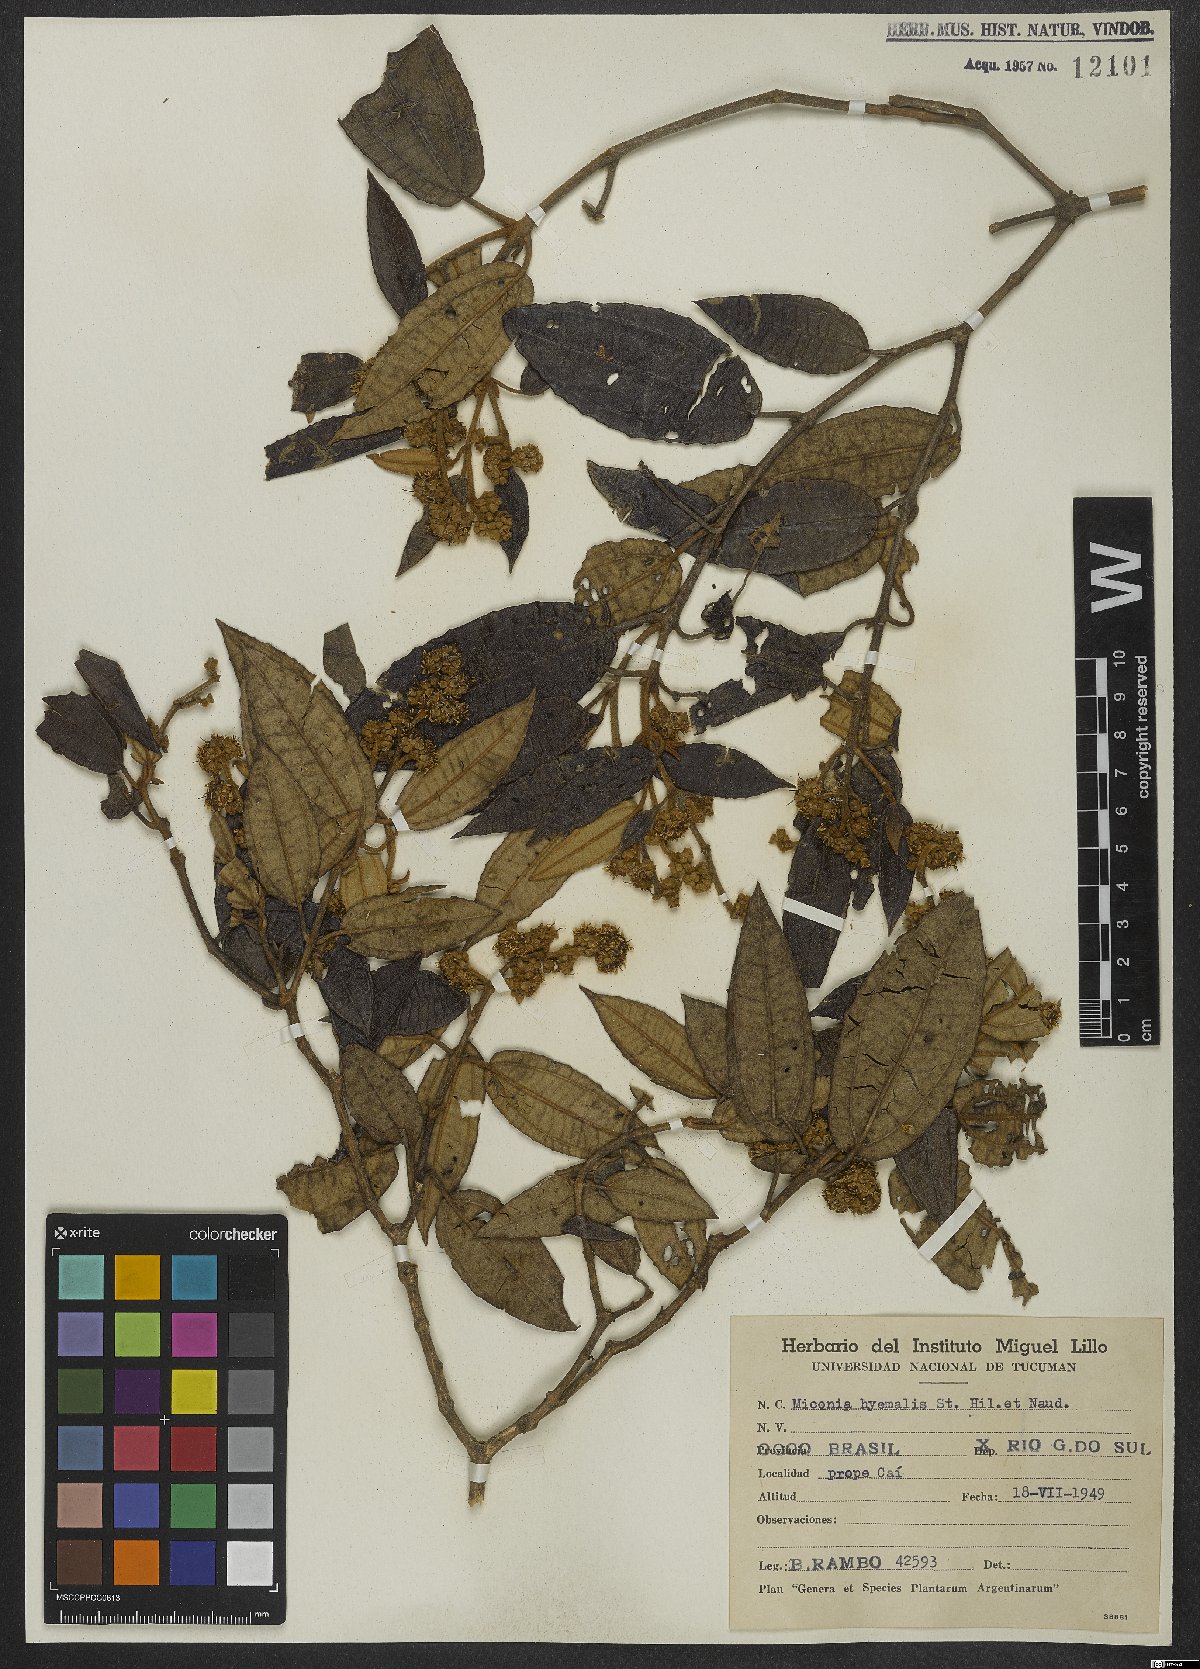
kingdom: Plantae
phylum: Tracheophyta
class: Magnoliopsida
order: Myrtales
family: Melastomataceae
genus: Miconia
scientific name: Miconia hyemalis
